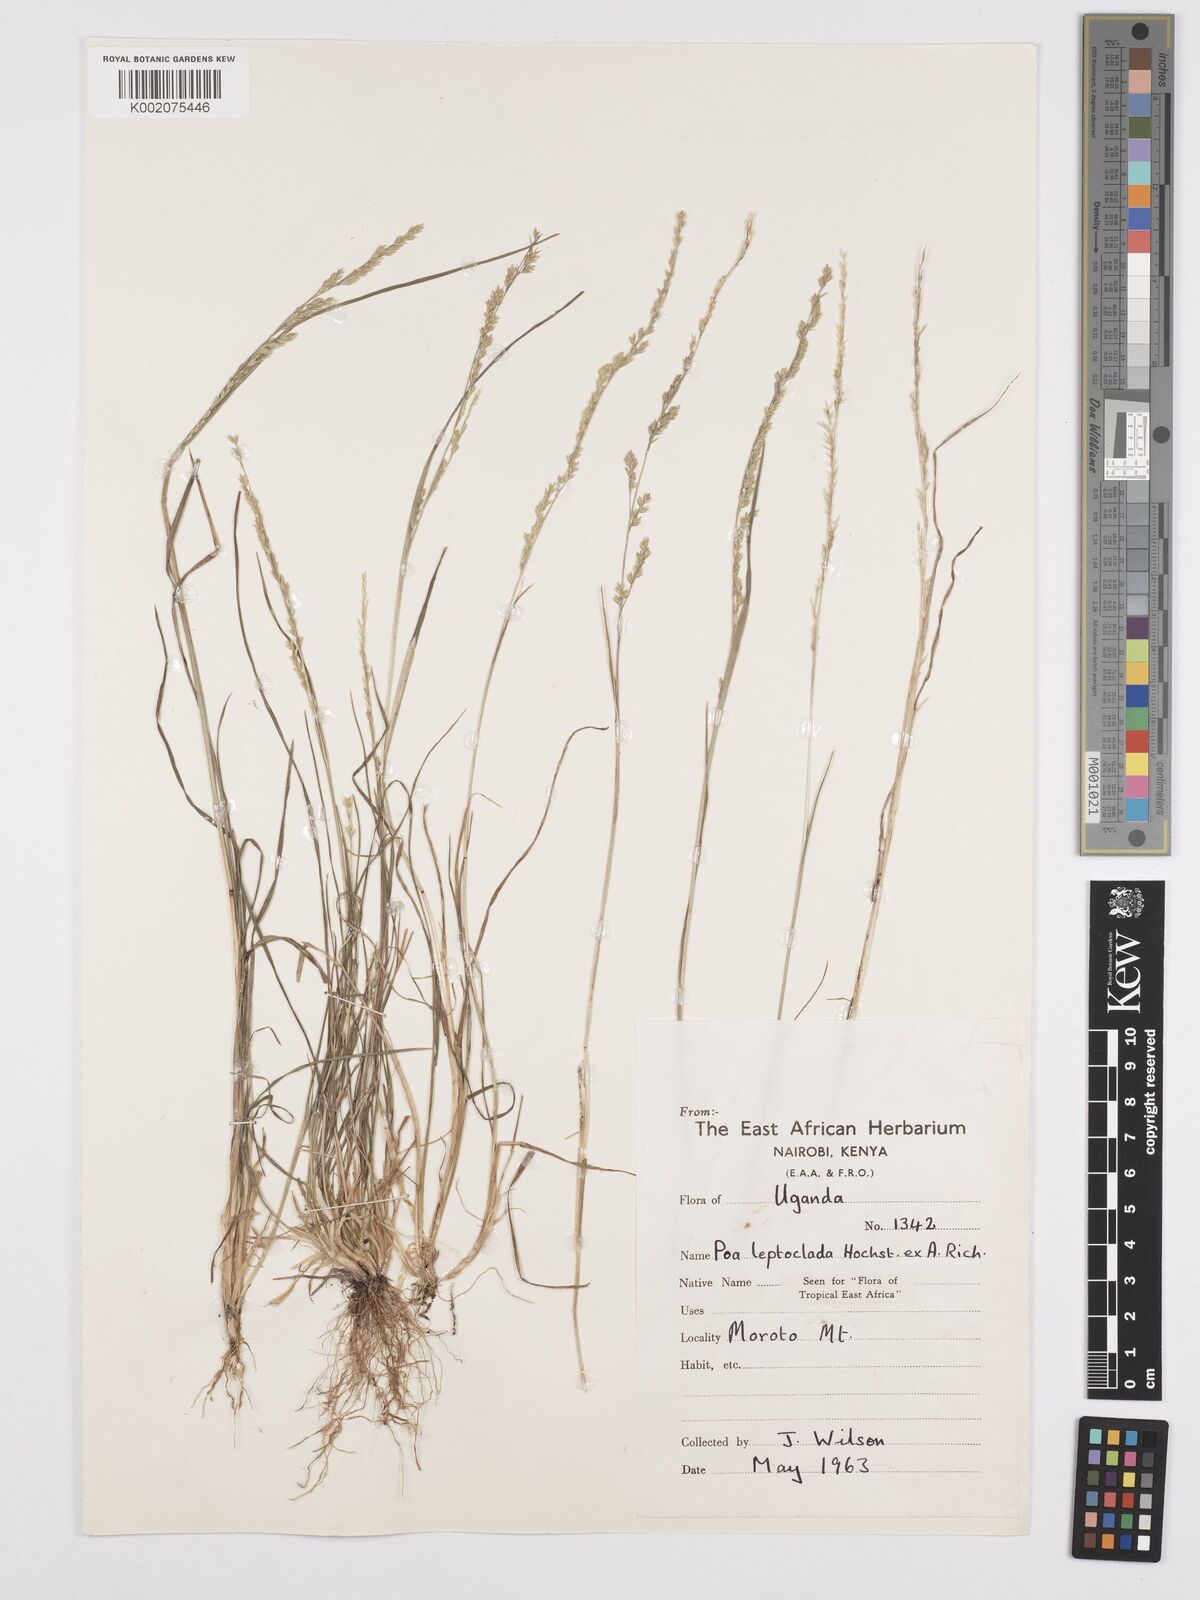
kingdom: Plantae
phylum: Tracheophyta
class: Liliopsida
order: Poales
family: Poaceae
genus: Poa
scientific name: Poa
